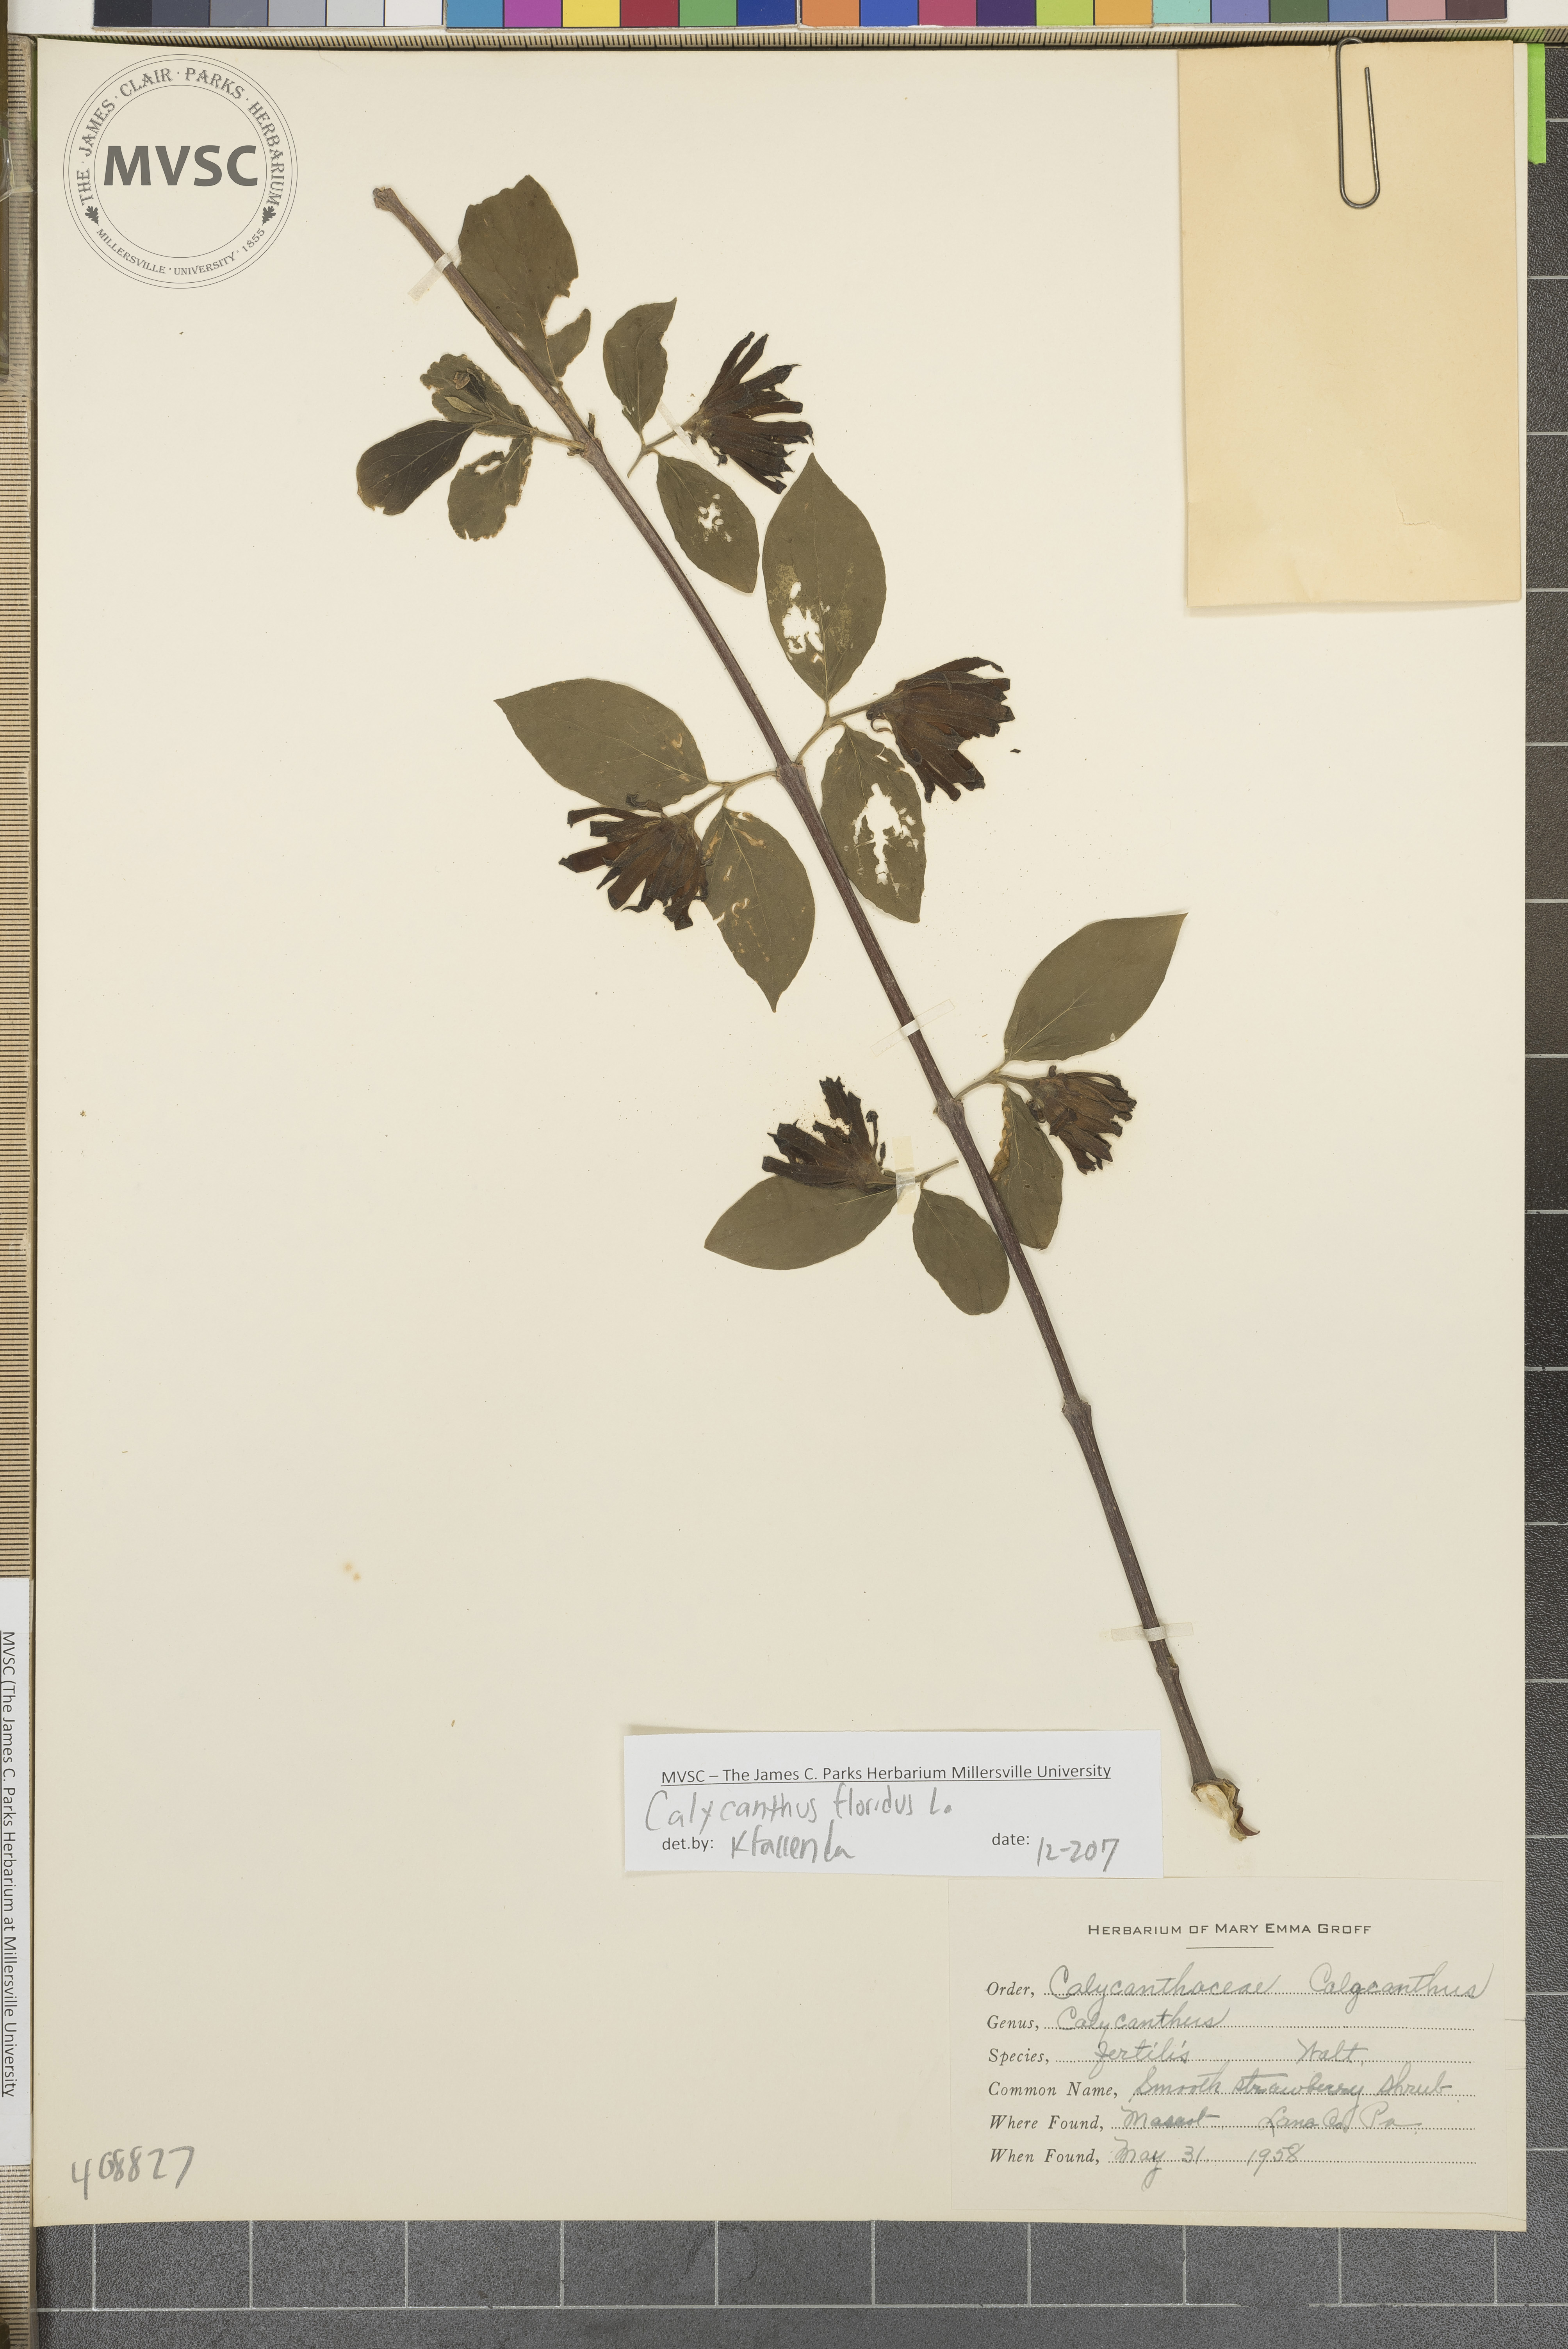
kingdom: Plantae
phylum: Tracheophyta
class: Magnoliopsida
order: Laurales
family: Calycanthaceae
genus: Calycanthus
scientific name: Calycanthus floridus
